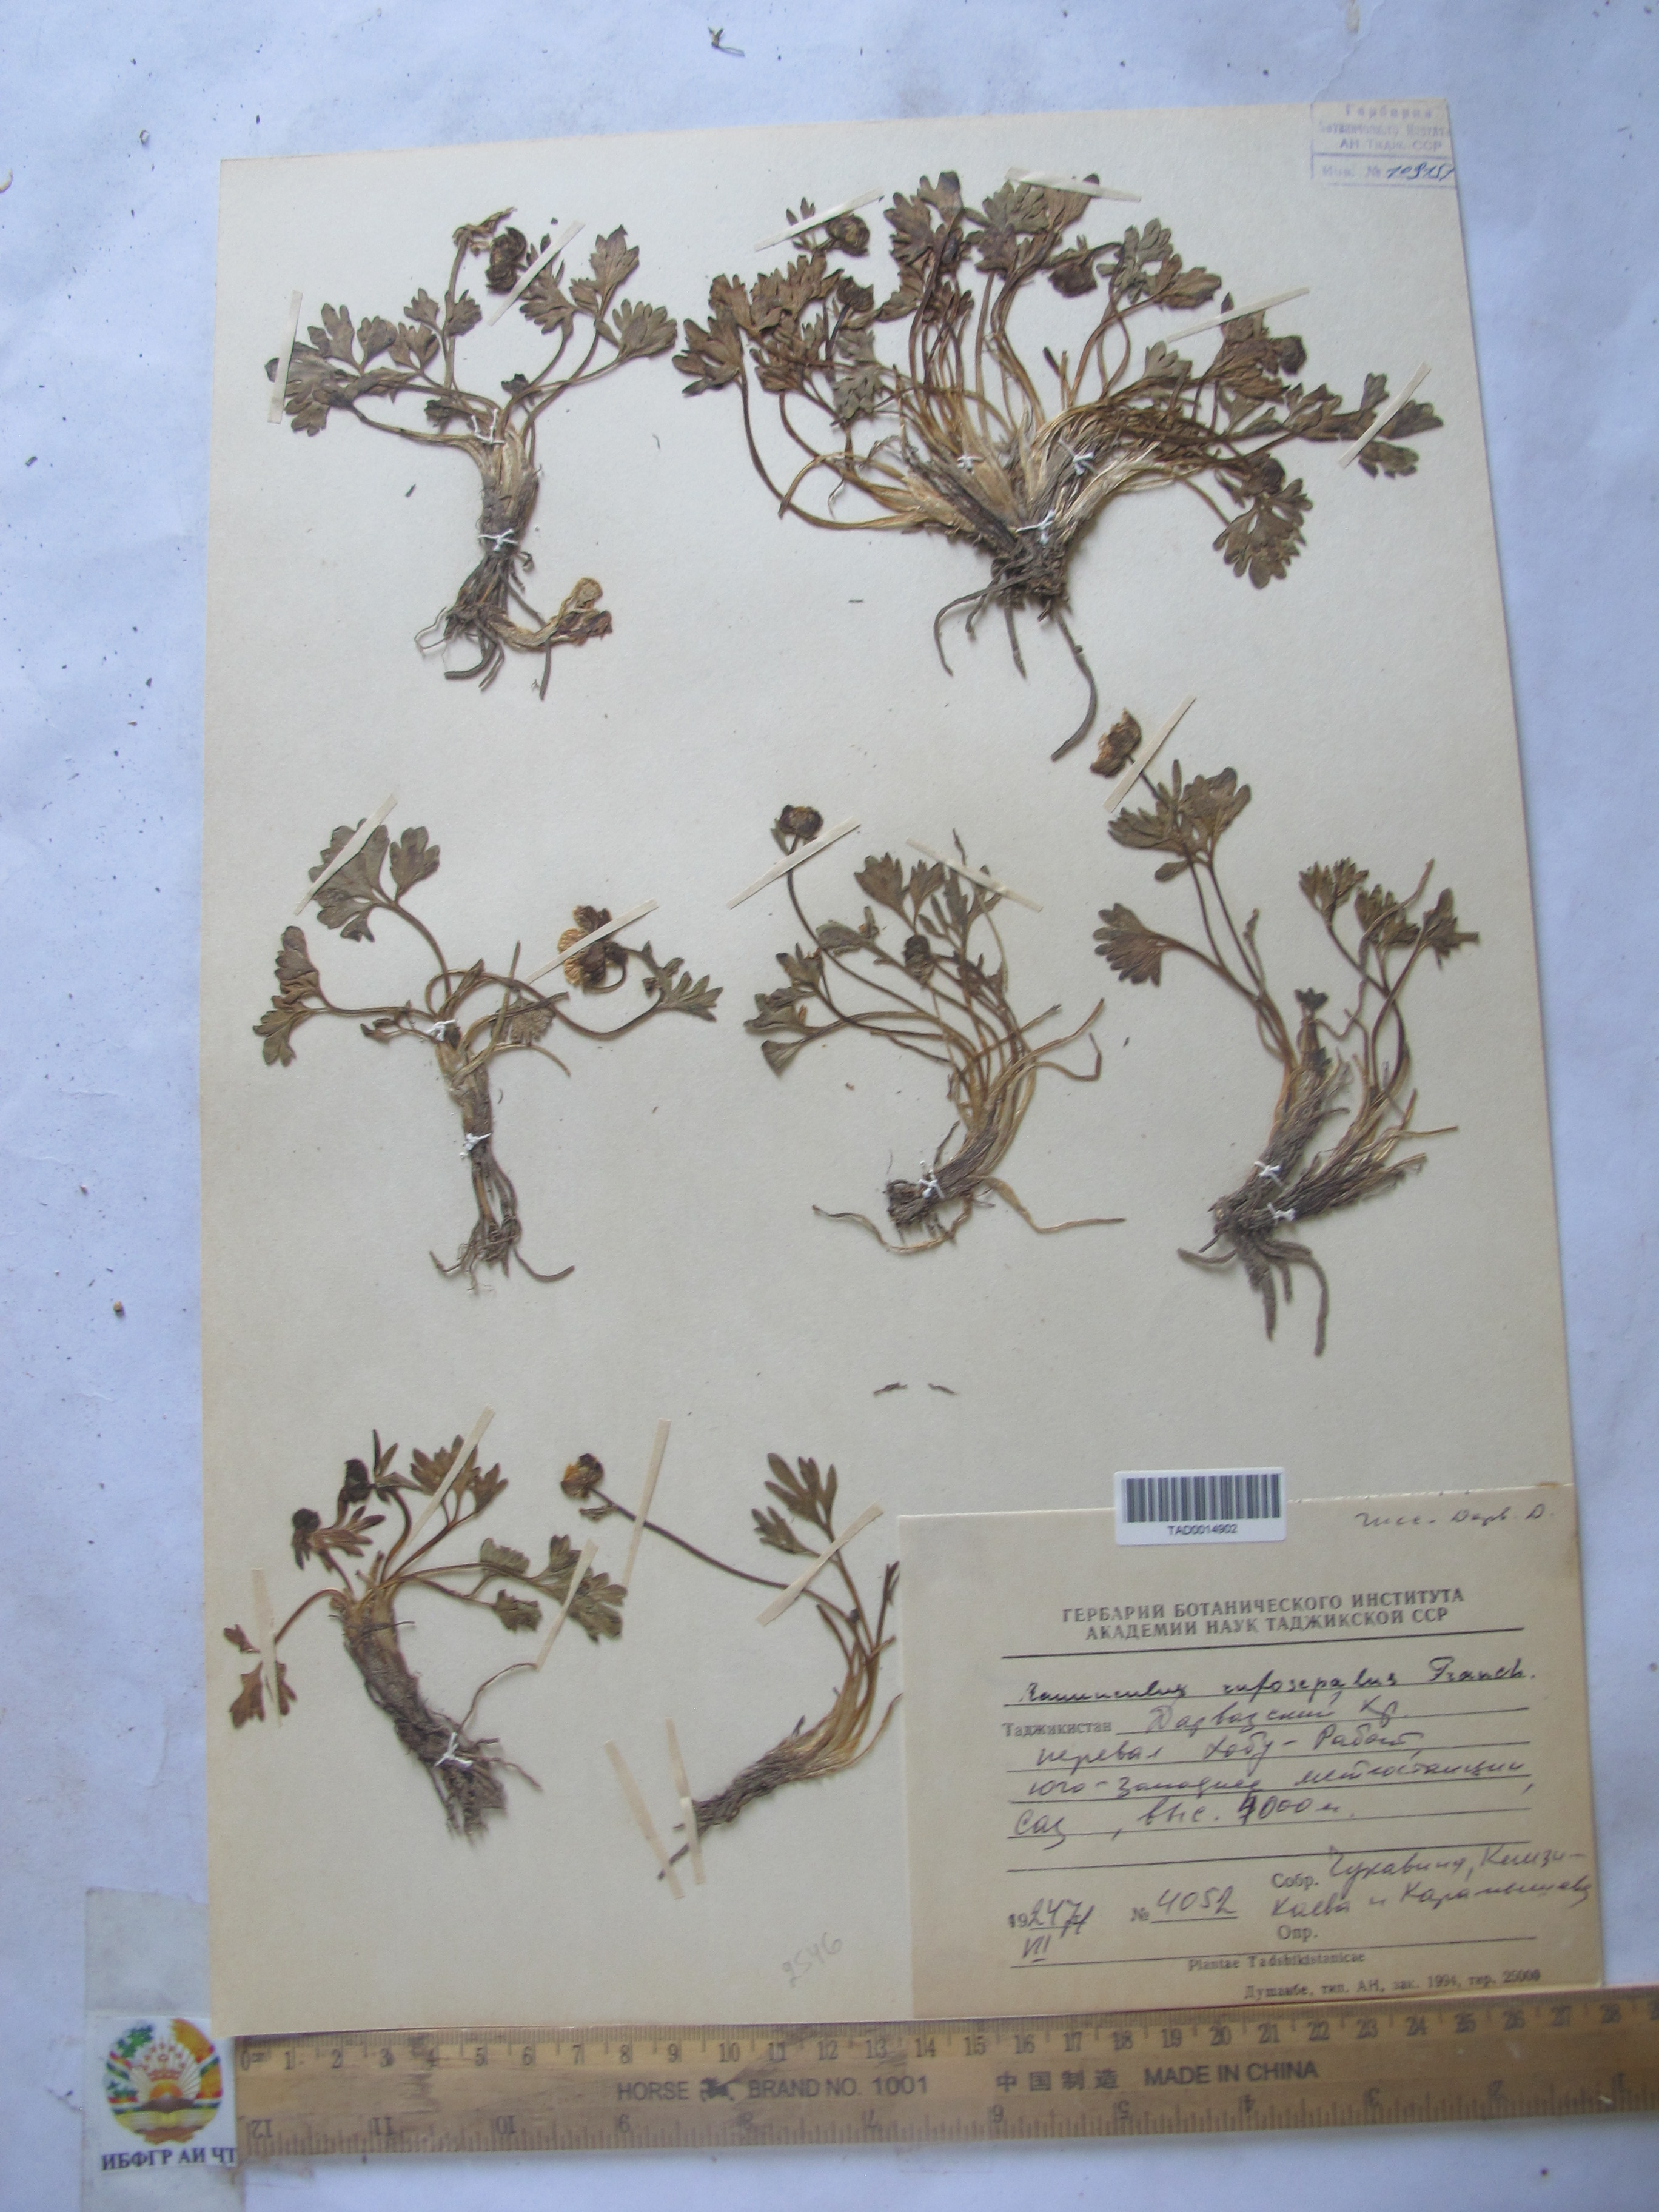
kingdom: Plantae
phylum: Tracheophyta
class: Magnoliopsida
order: Ranunculales
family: Ranunculaceae
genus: Ranunculus
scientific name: Ranunculus rufosepalus
